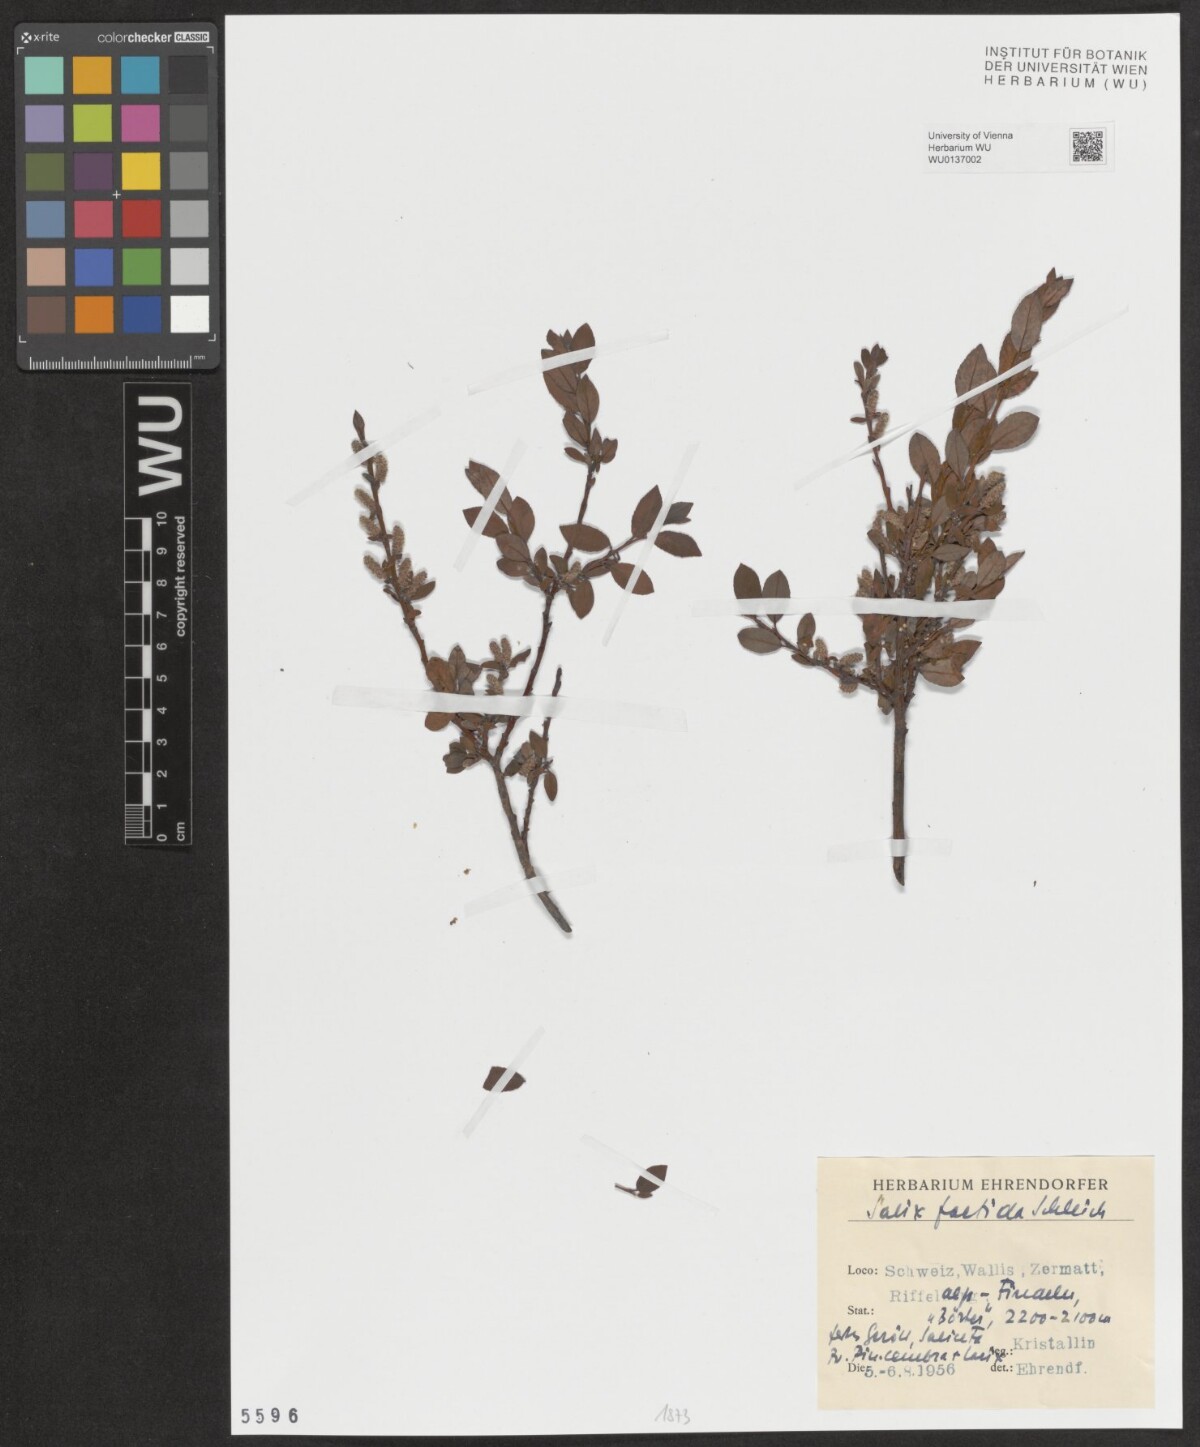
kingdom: Plantae
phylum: Tracheophyta
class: Magnoliopsida
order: Malpighiales
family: Salicaceae
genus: Salix
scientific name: Salix foetida
